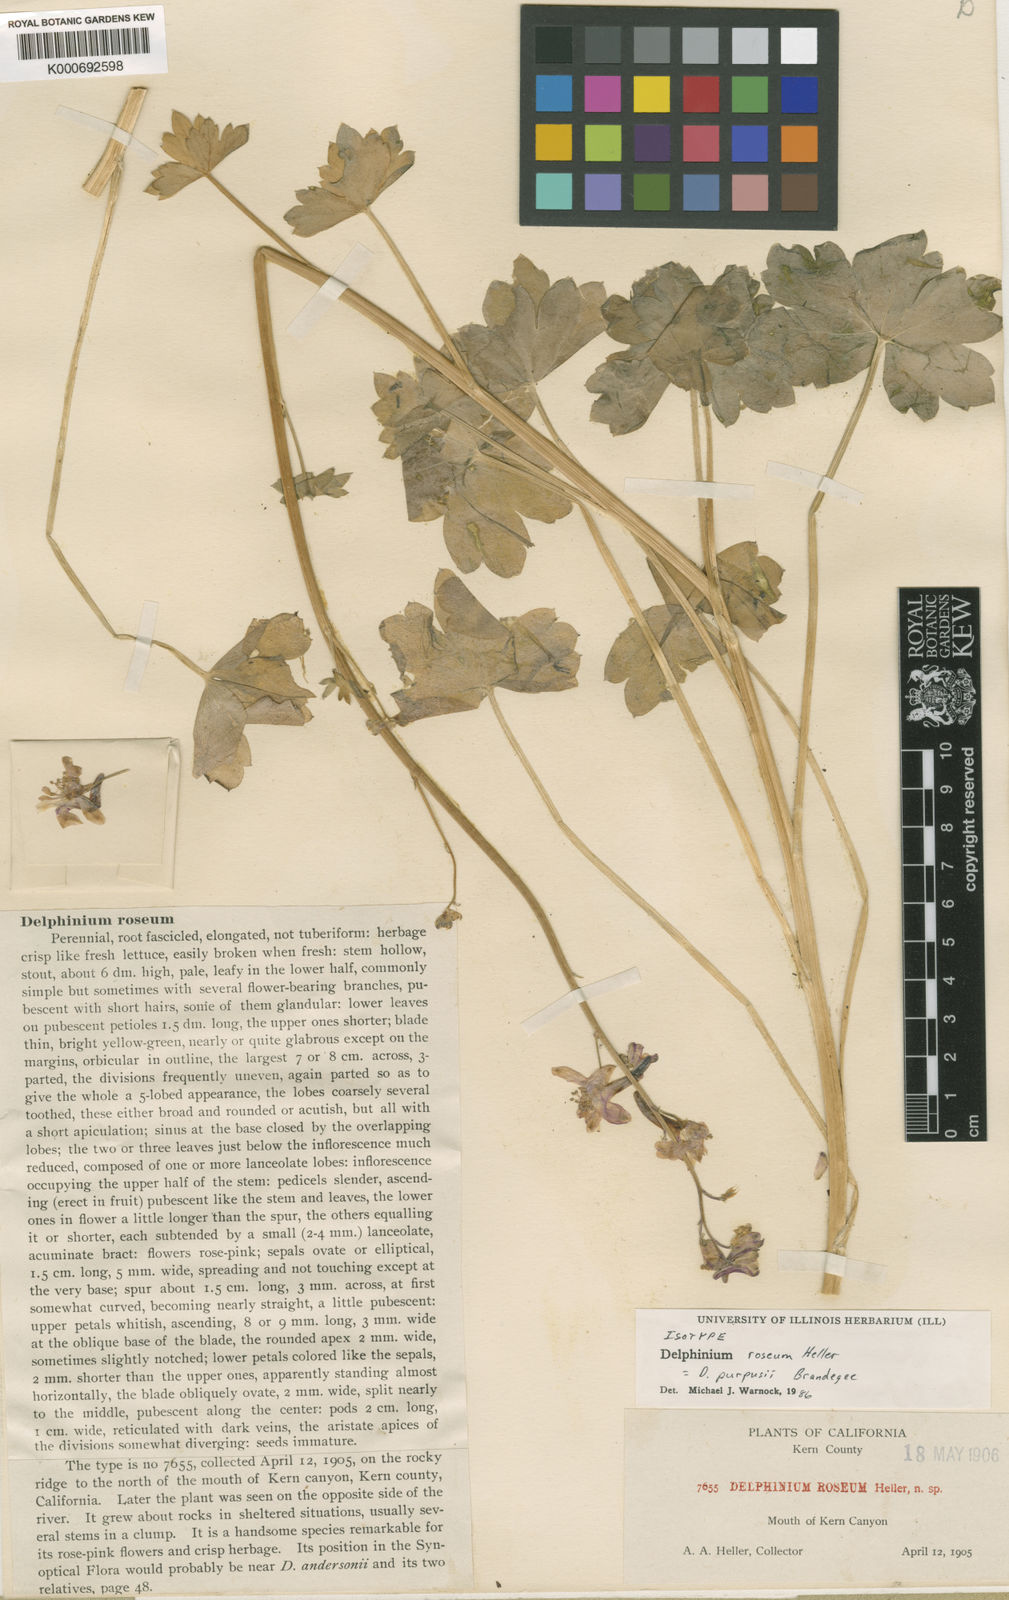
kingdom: Plantae
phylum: Tracheophyta
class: Magnoliopsida
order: Ranunculales
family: Ranunculaceae
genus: Delphinium
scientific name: Delphinium purpusii
